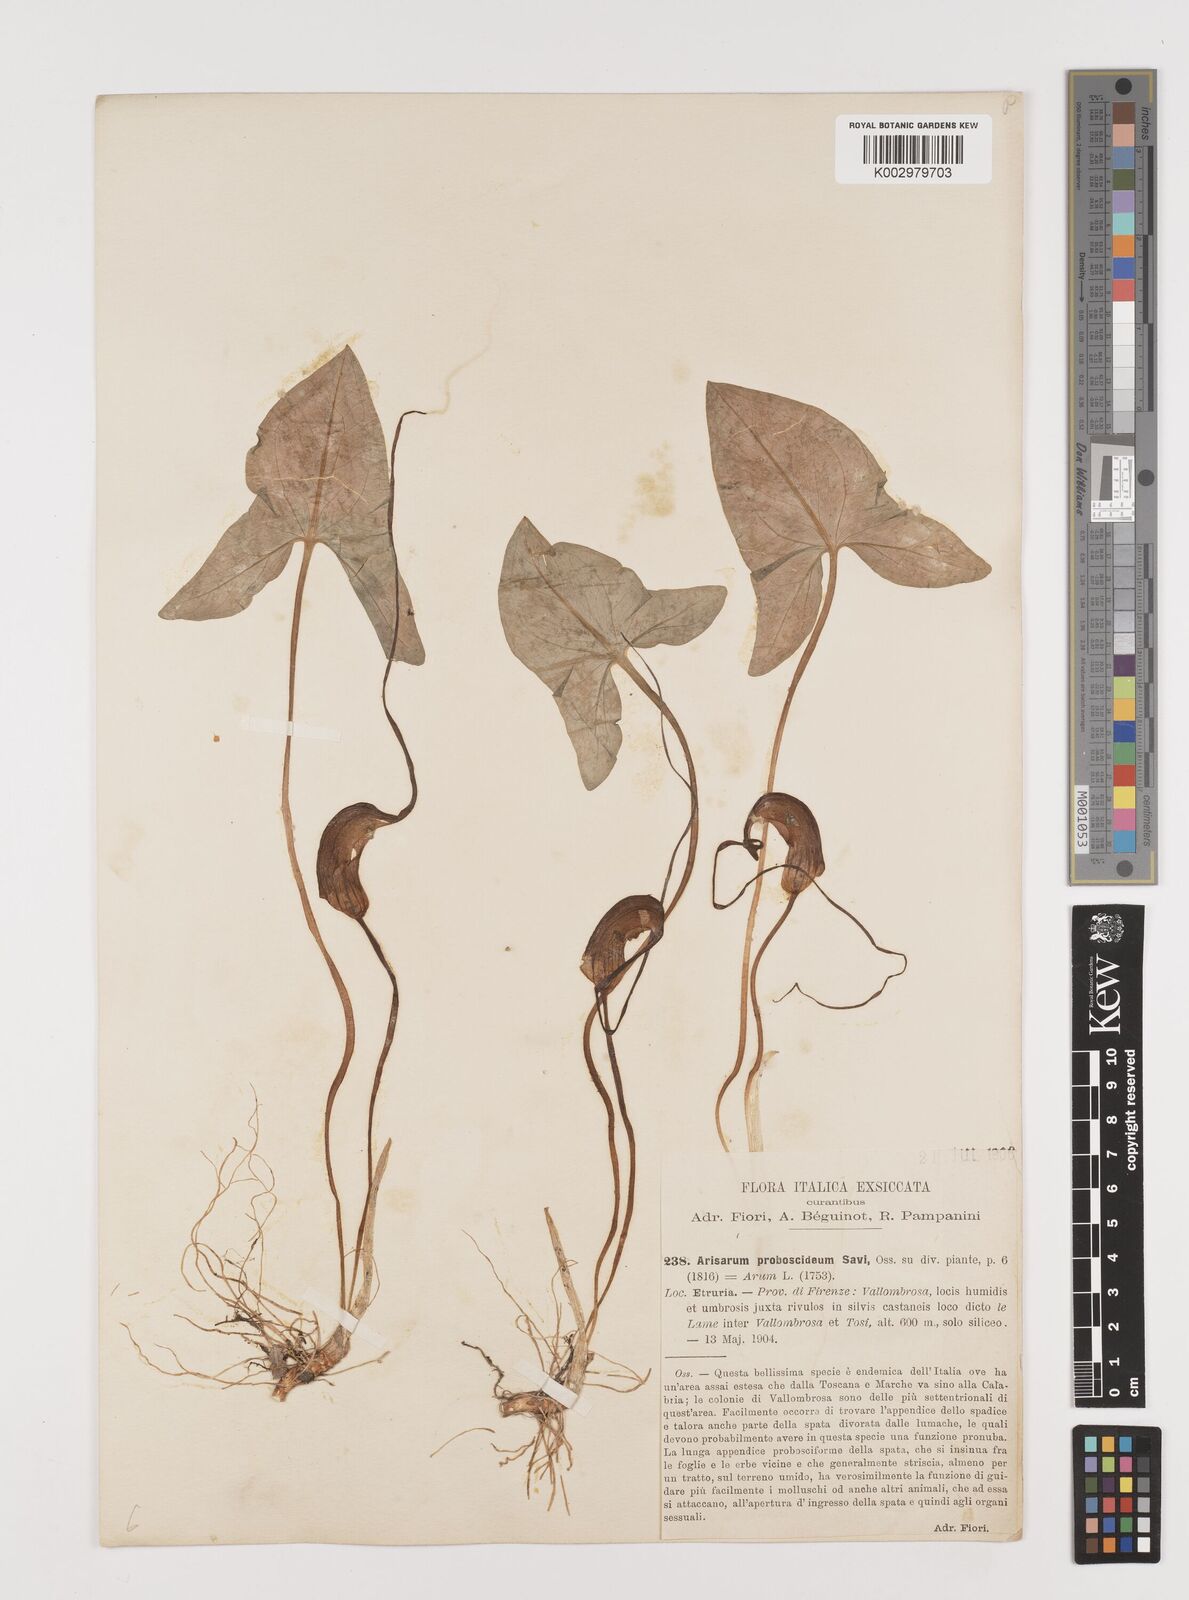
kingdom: Plantae
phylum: Tracheophyta
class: Liliopsida
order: Alismatales
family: Araceae
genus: Arisarum
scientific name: Arisarum proboscideum
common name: Mousetailplant
